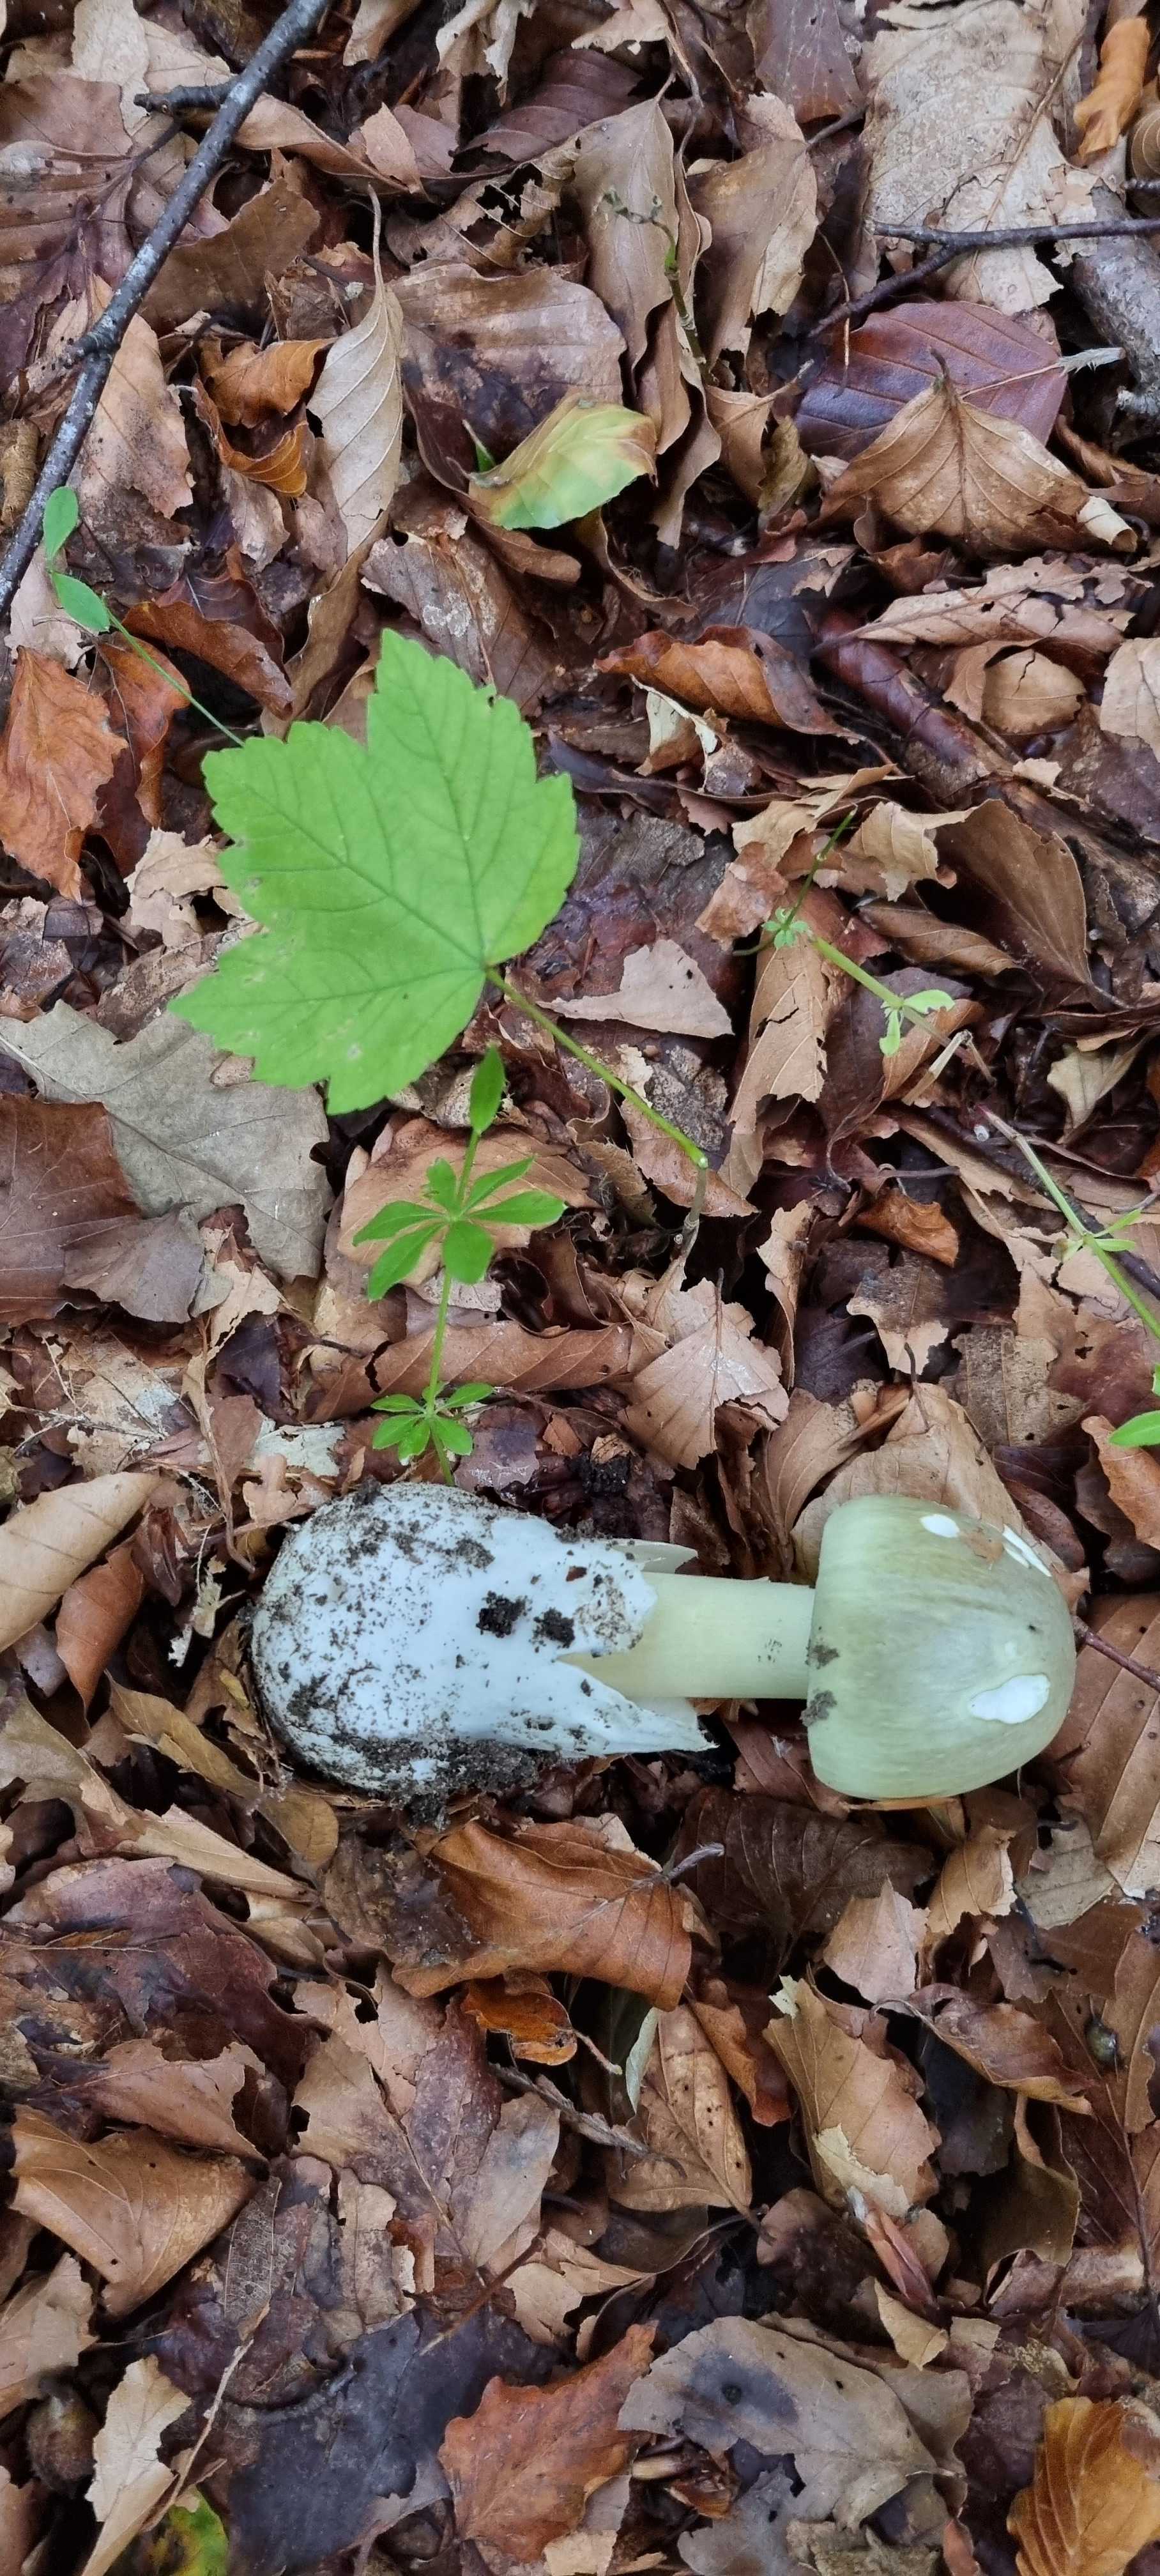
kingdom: Fungi
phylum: Basidiomycota
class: Agaricomycetes
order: Agaricales
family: Amanitaceae
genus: Amanita
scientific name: Amanita phalloides
